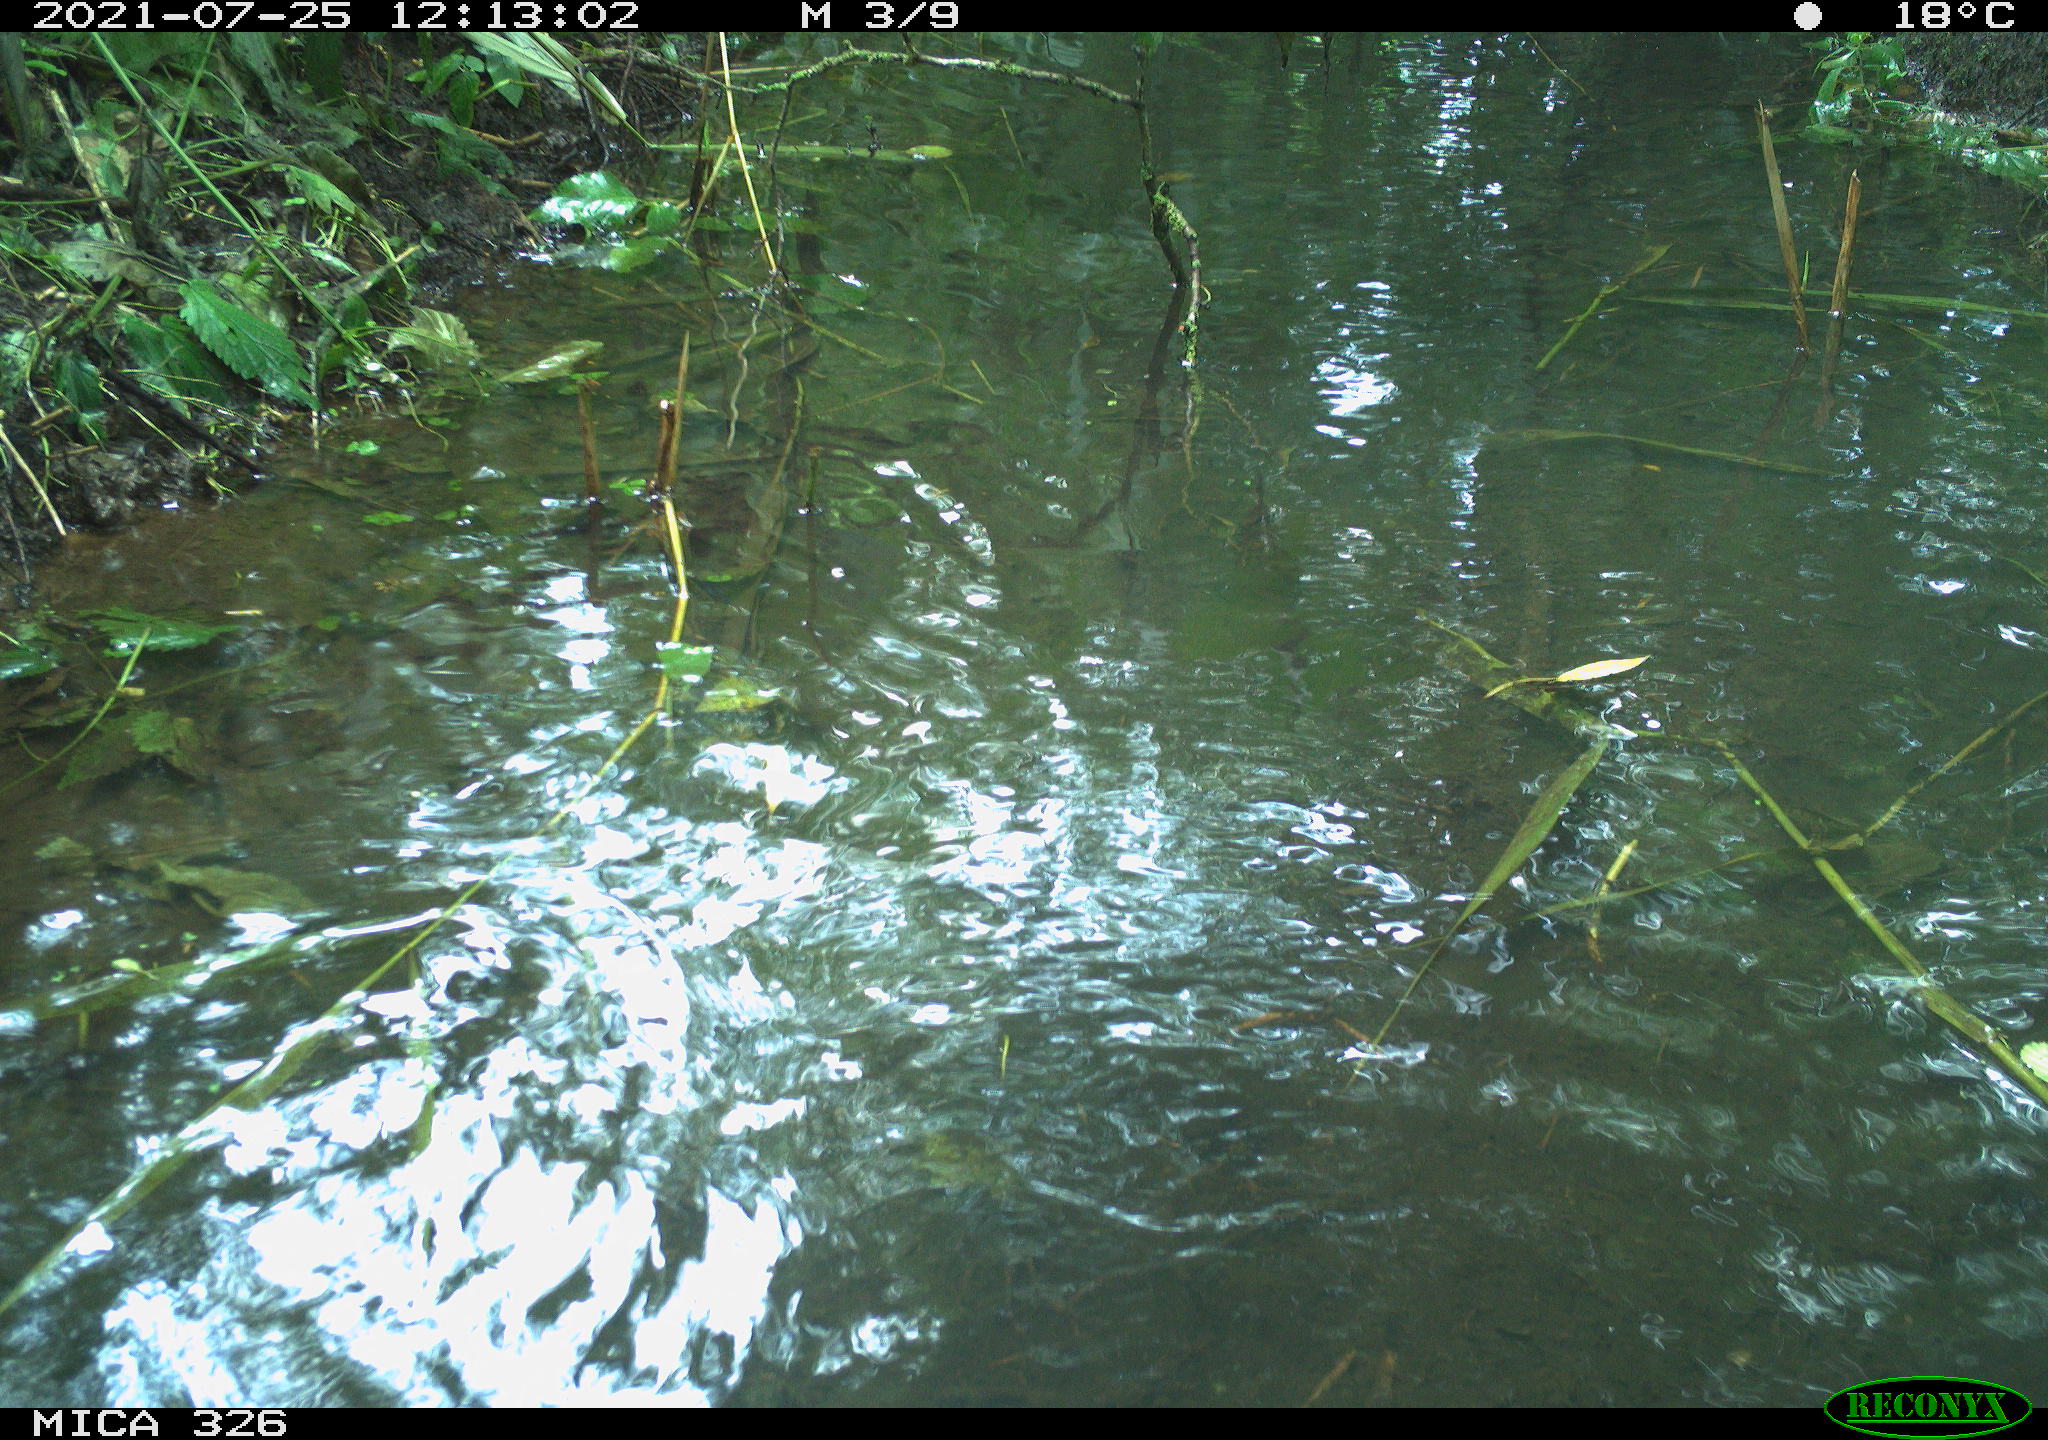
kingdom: Animalia
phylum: Chordata
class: Aves
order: Anseriformes
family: Anatidae
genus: Anas
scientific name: Anas platyrhynchos
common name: Mallard
